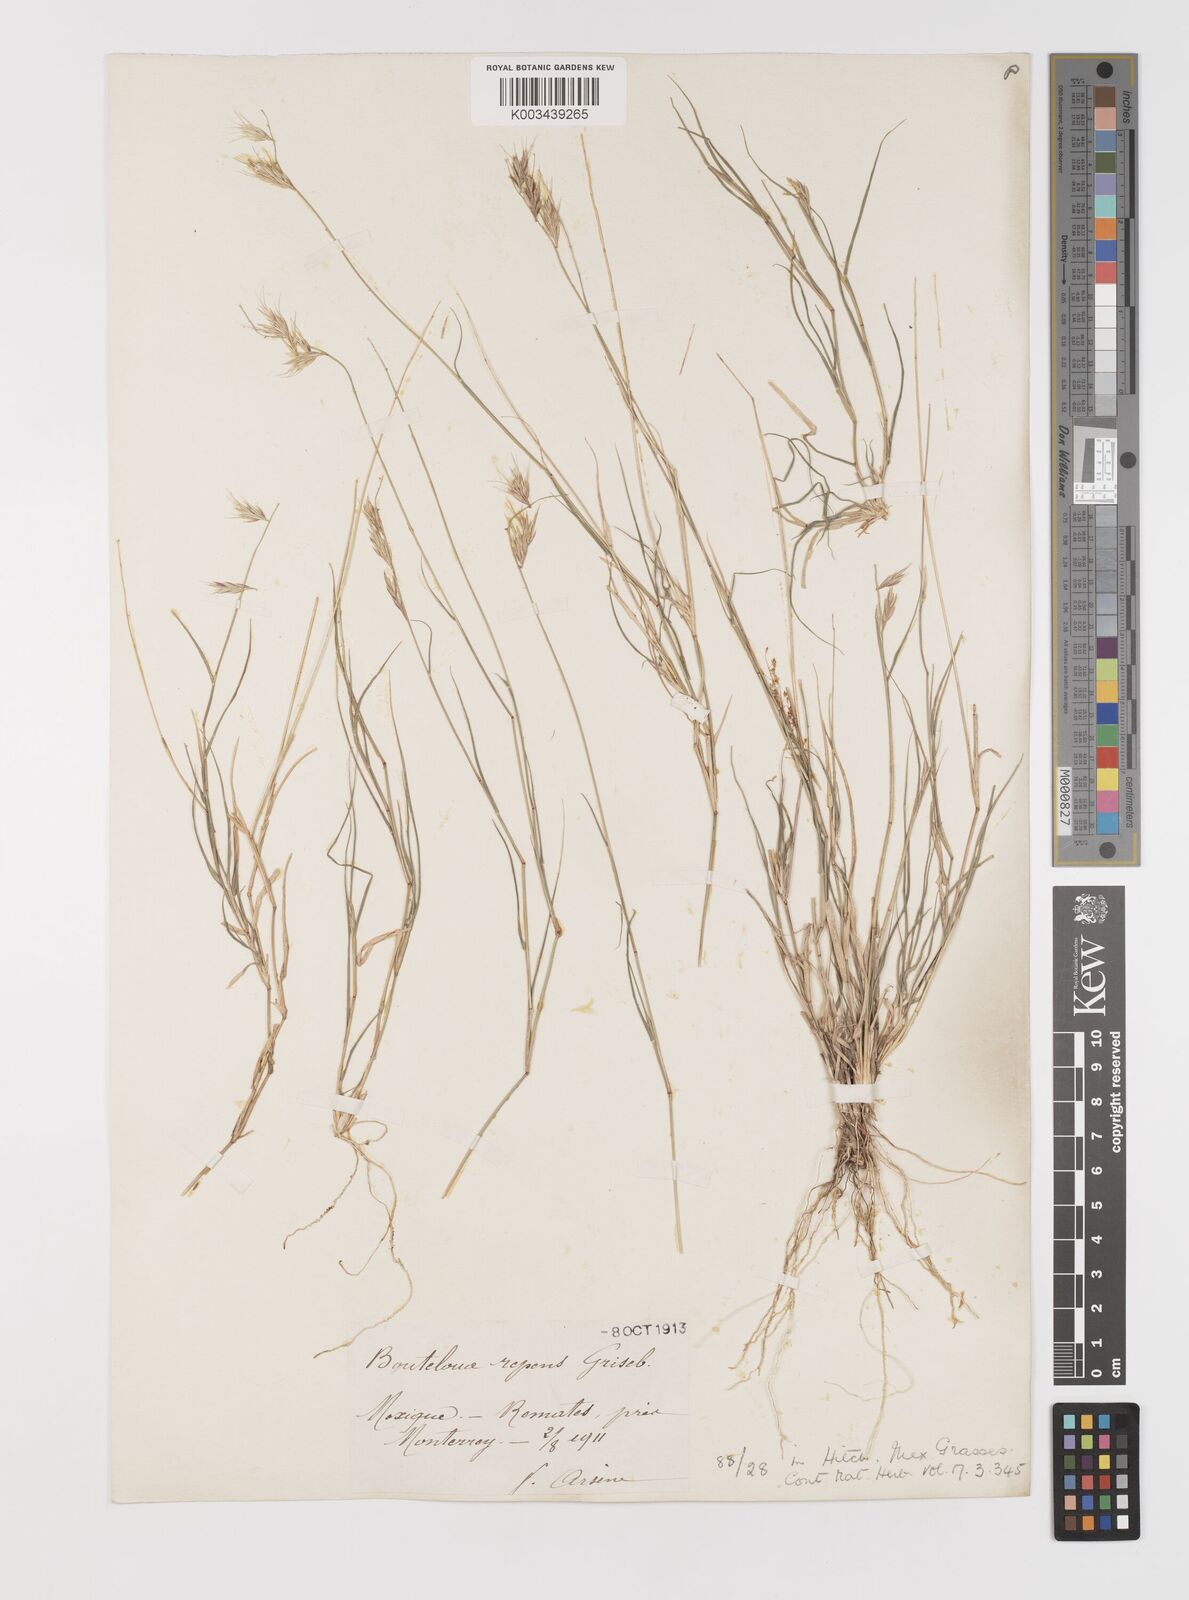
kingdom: Plantae
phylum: Tracheophyta
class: Liliopsida
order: Poales
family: Poaceae
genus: Bouteloua
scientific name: Bouteloua repens
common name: Slender grama
